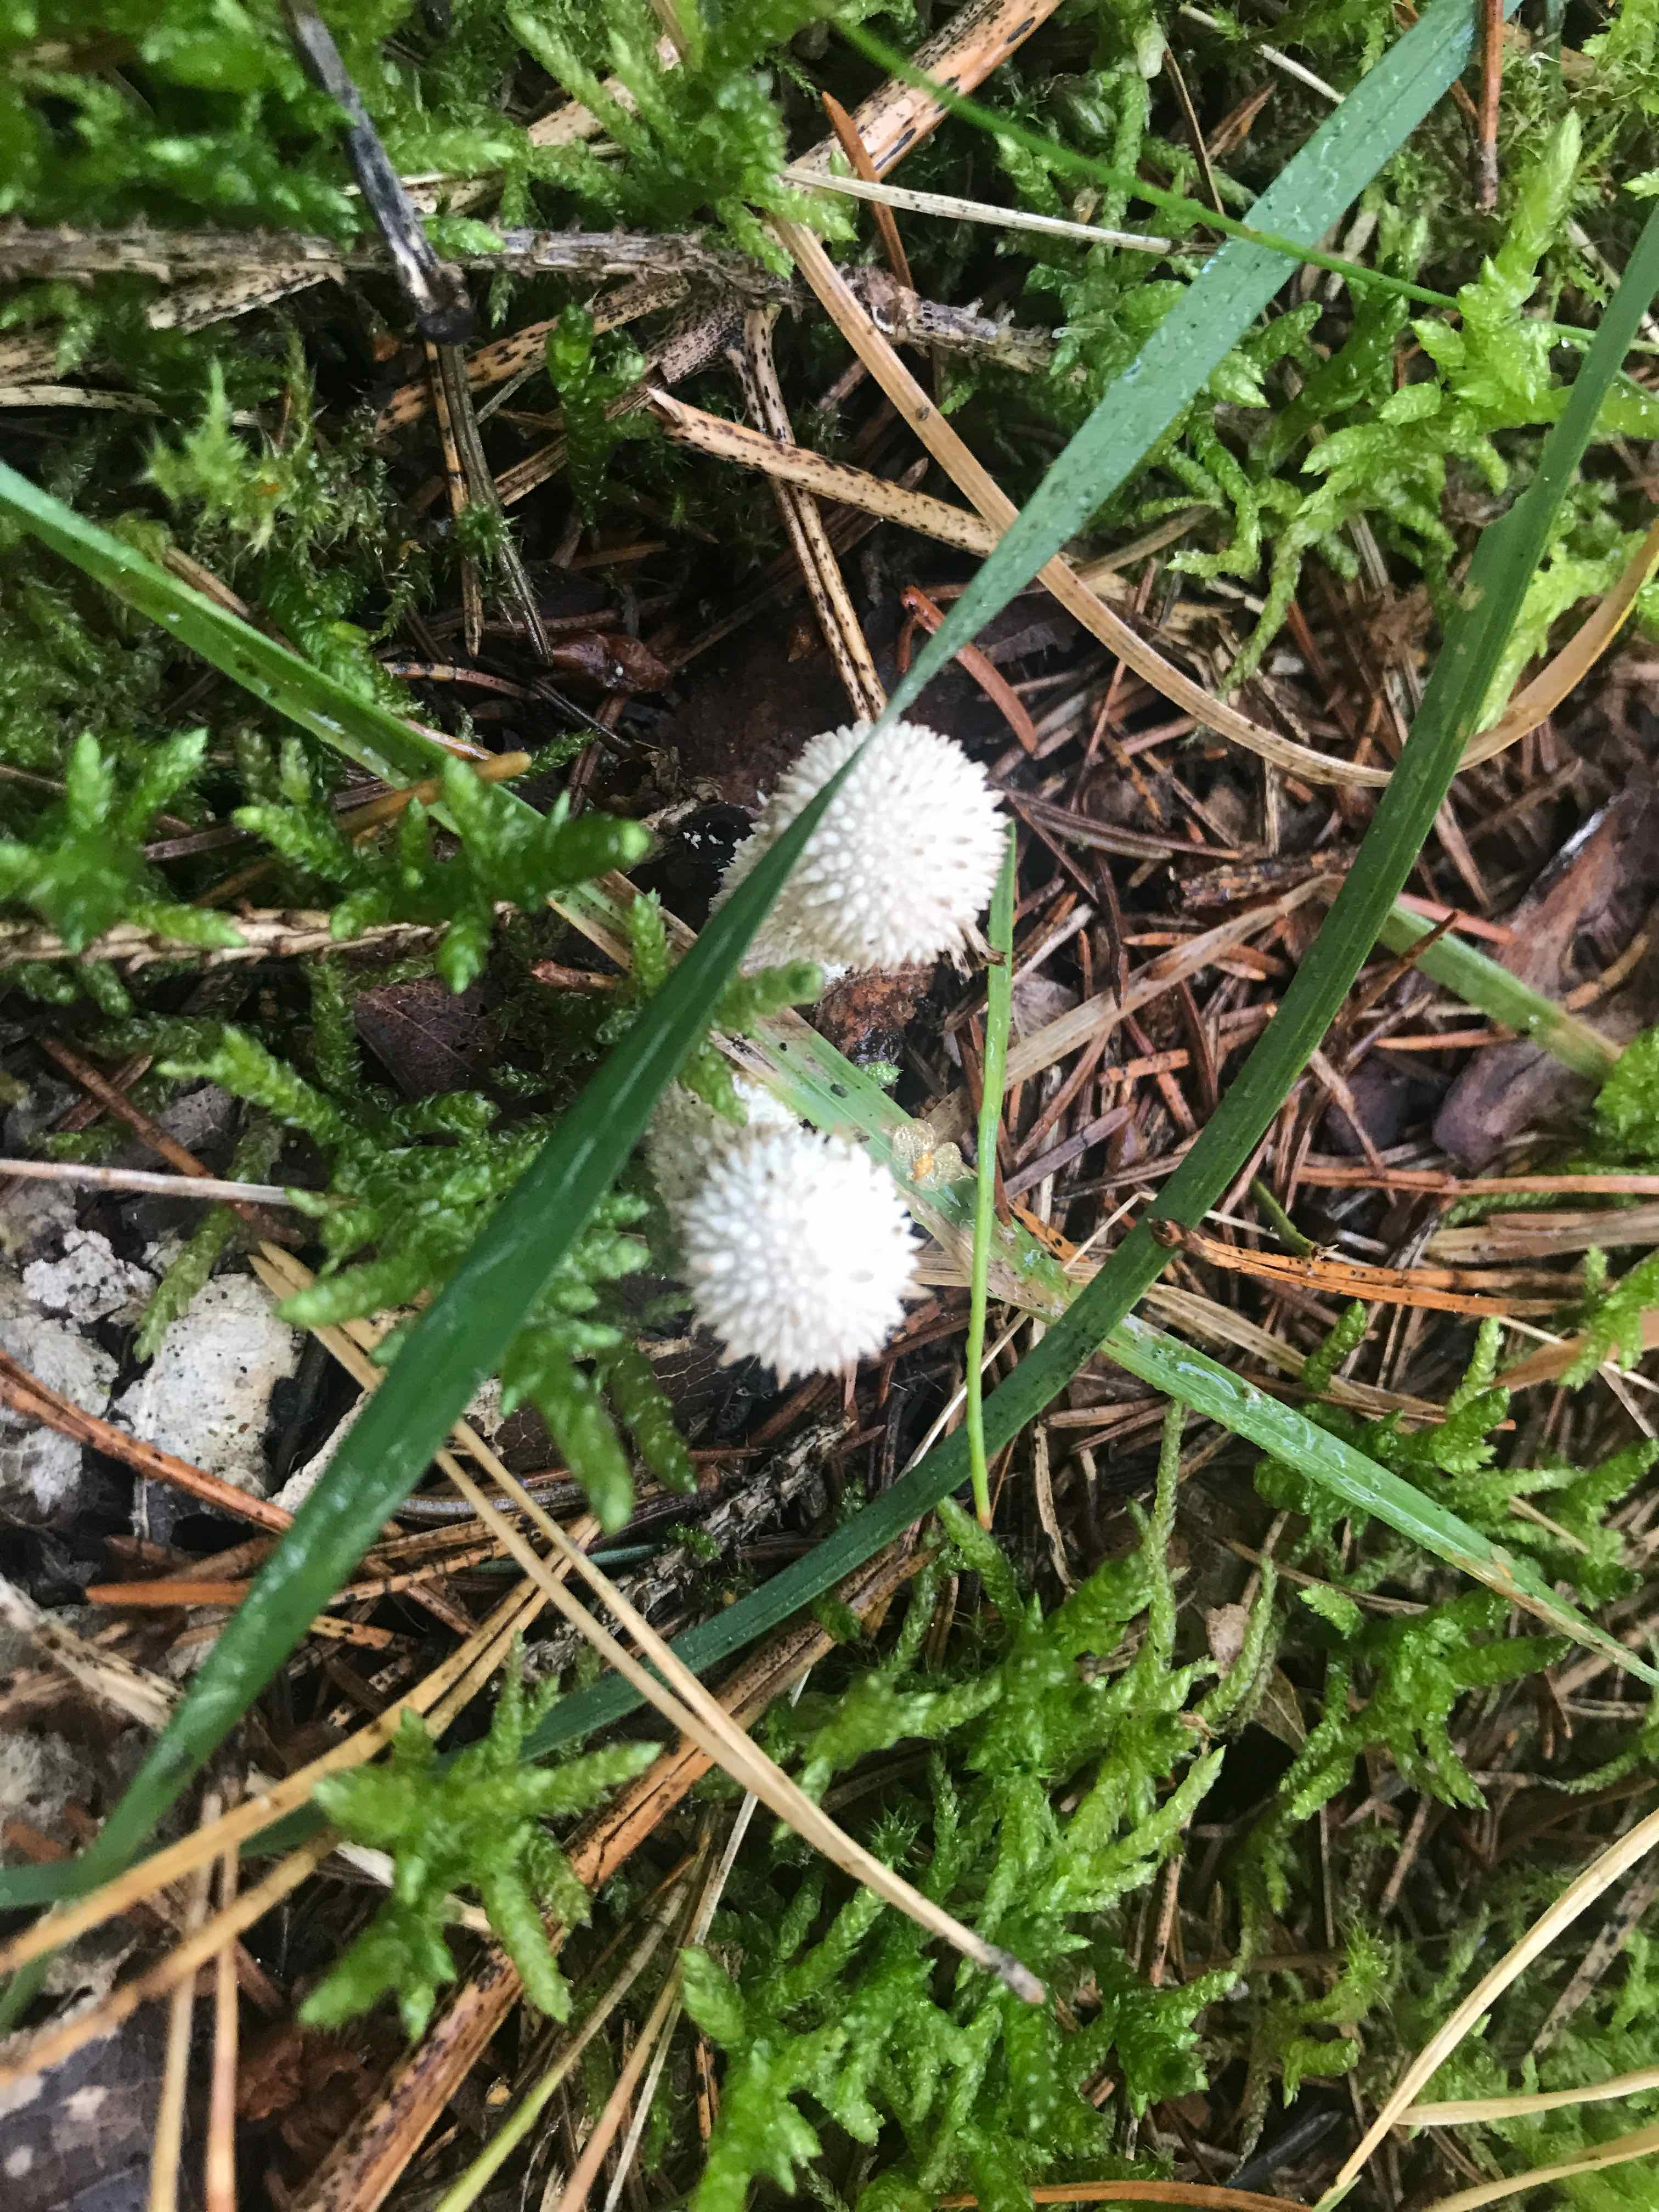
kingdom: Fungi
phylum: Basidiomycota
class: Agaricomycetes
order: Agaricales
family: Lycoperdaceae
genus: Lycoperdon
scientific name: Lycoperdon perlatum
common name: krystal-støvbold
